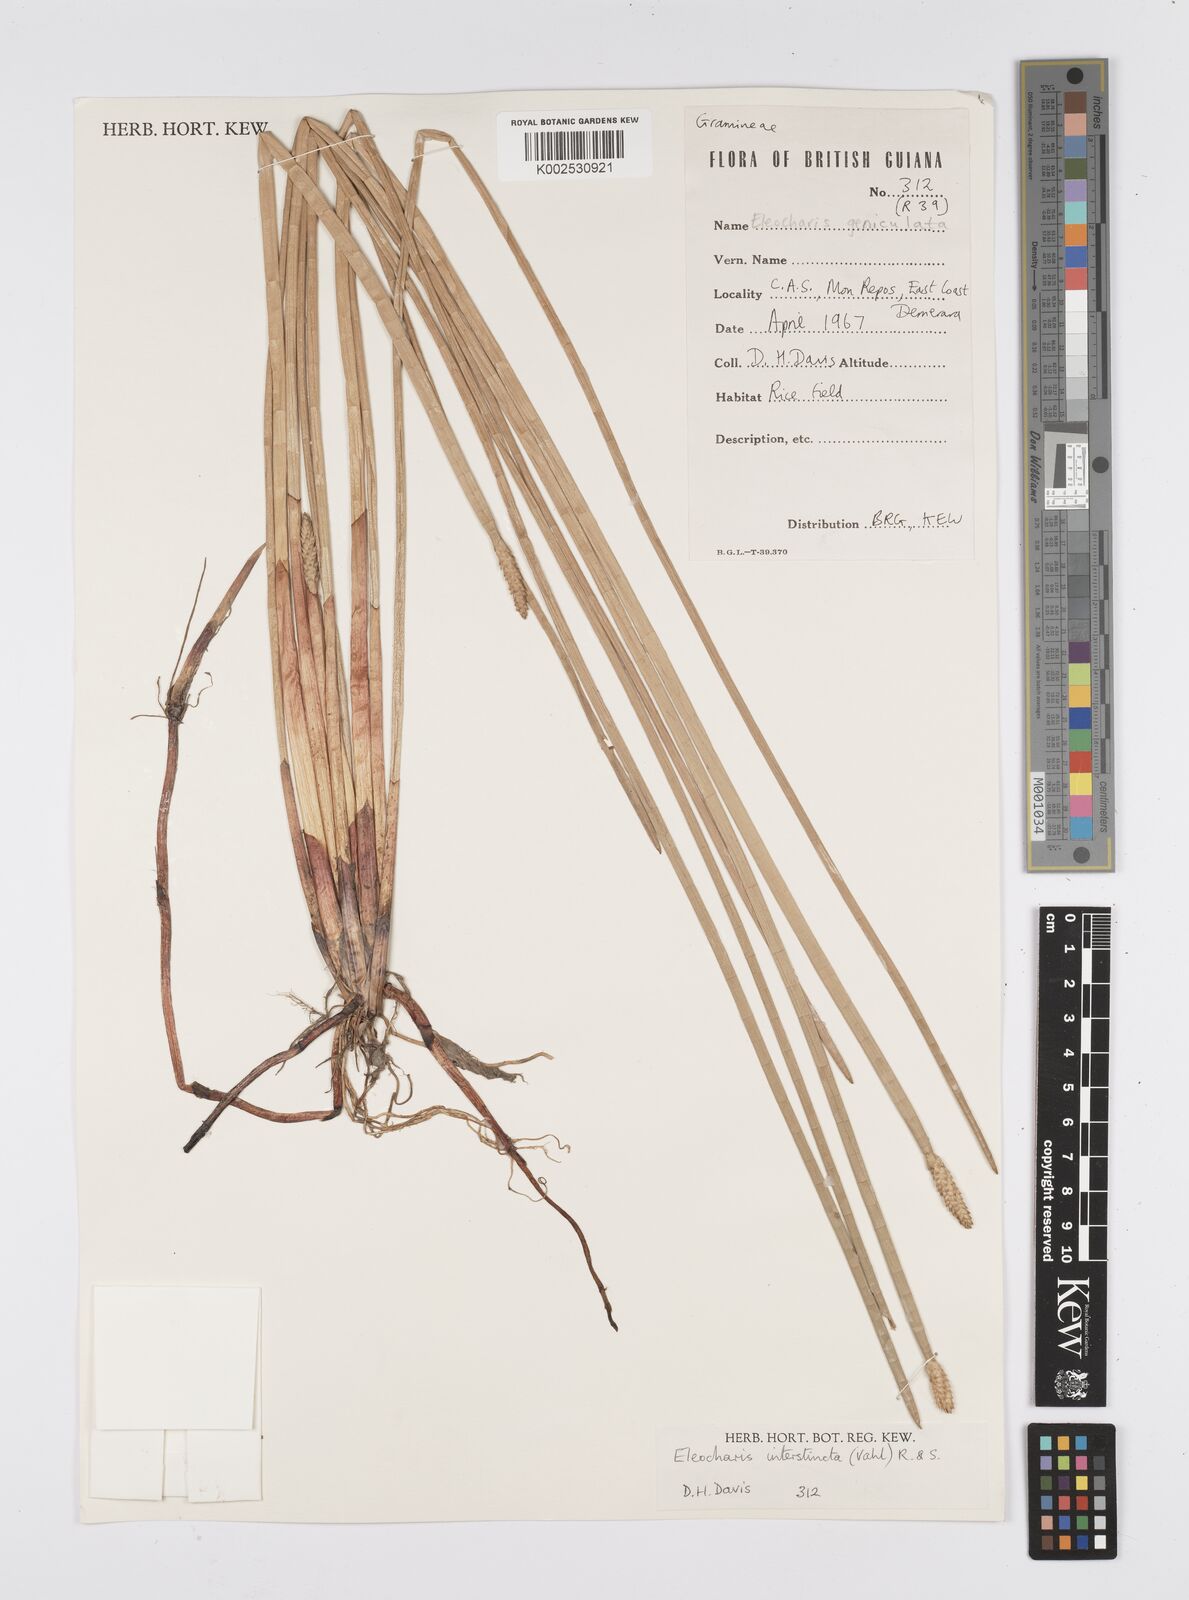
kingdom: Plantae
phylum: Tracheophyta
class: Liliopsida
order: Poales
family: Cyperaceae
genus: Eleocharis
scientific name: Eleocharis interstincta
